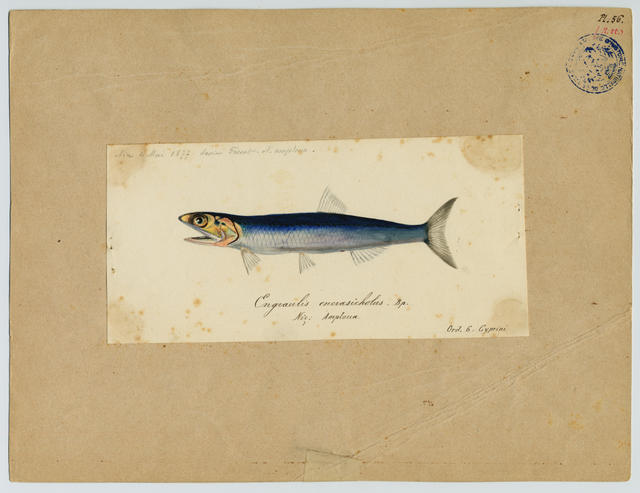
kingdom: Animalia
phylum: Chordata
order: Clupeiformes
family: Engraulidae
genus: Engraulis
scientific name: Engraulis encrasicolus
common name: European anchovy
